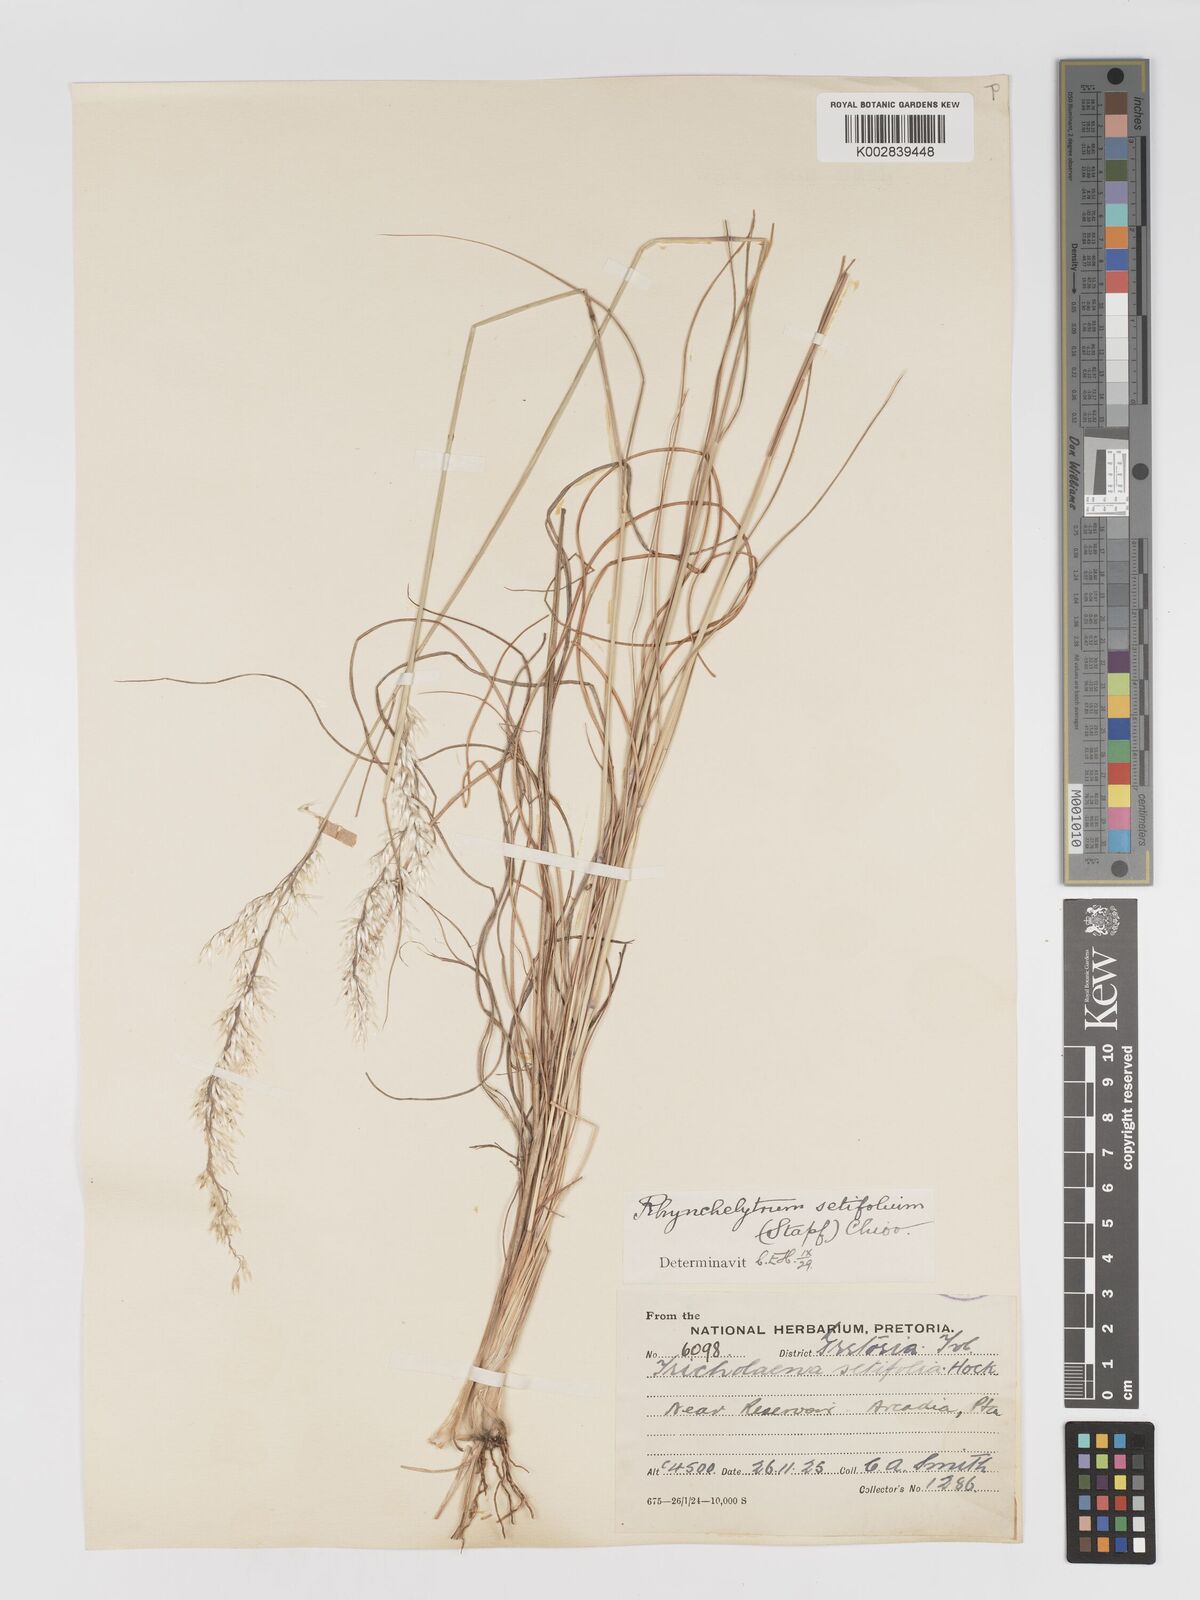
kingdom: Plantae
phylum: Tracheophyta
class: Liliopsida
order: Poales
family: Poaceae
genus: Melinis
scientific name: Melinis nerviglumis
